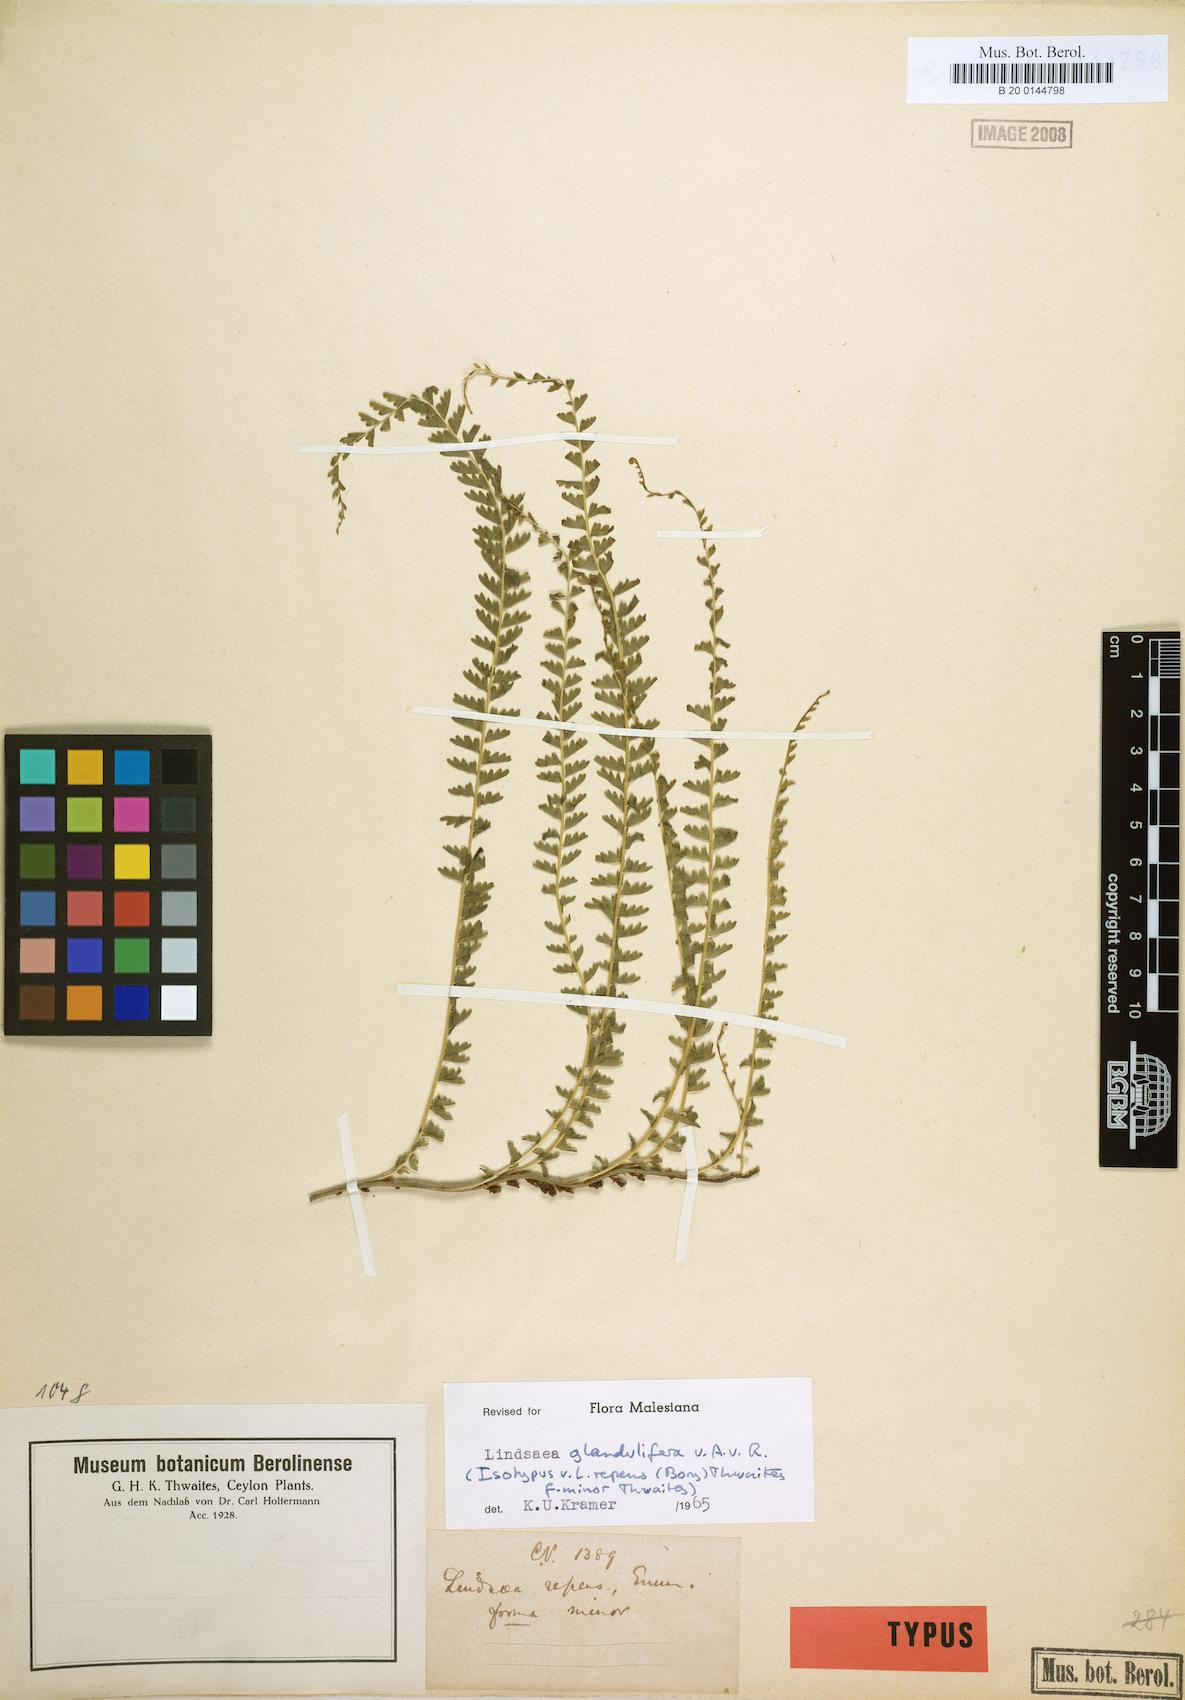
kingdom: Plantae
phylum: Tracheophyta
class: Polypodiopsida
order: Polypodiales
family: Lindsaeaceae
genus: Lindsaea
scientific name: Lindsaea glandulifera
